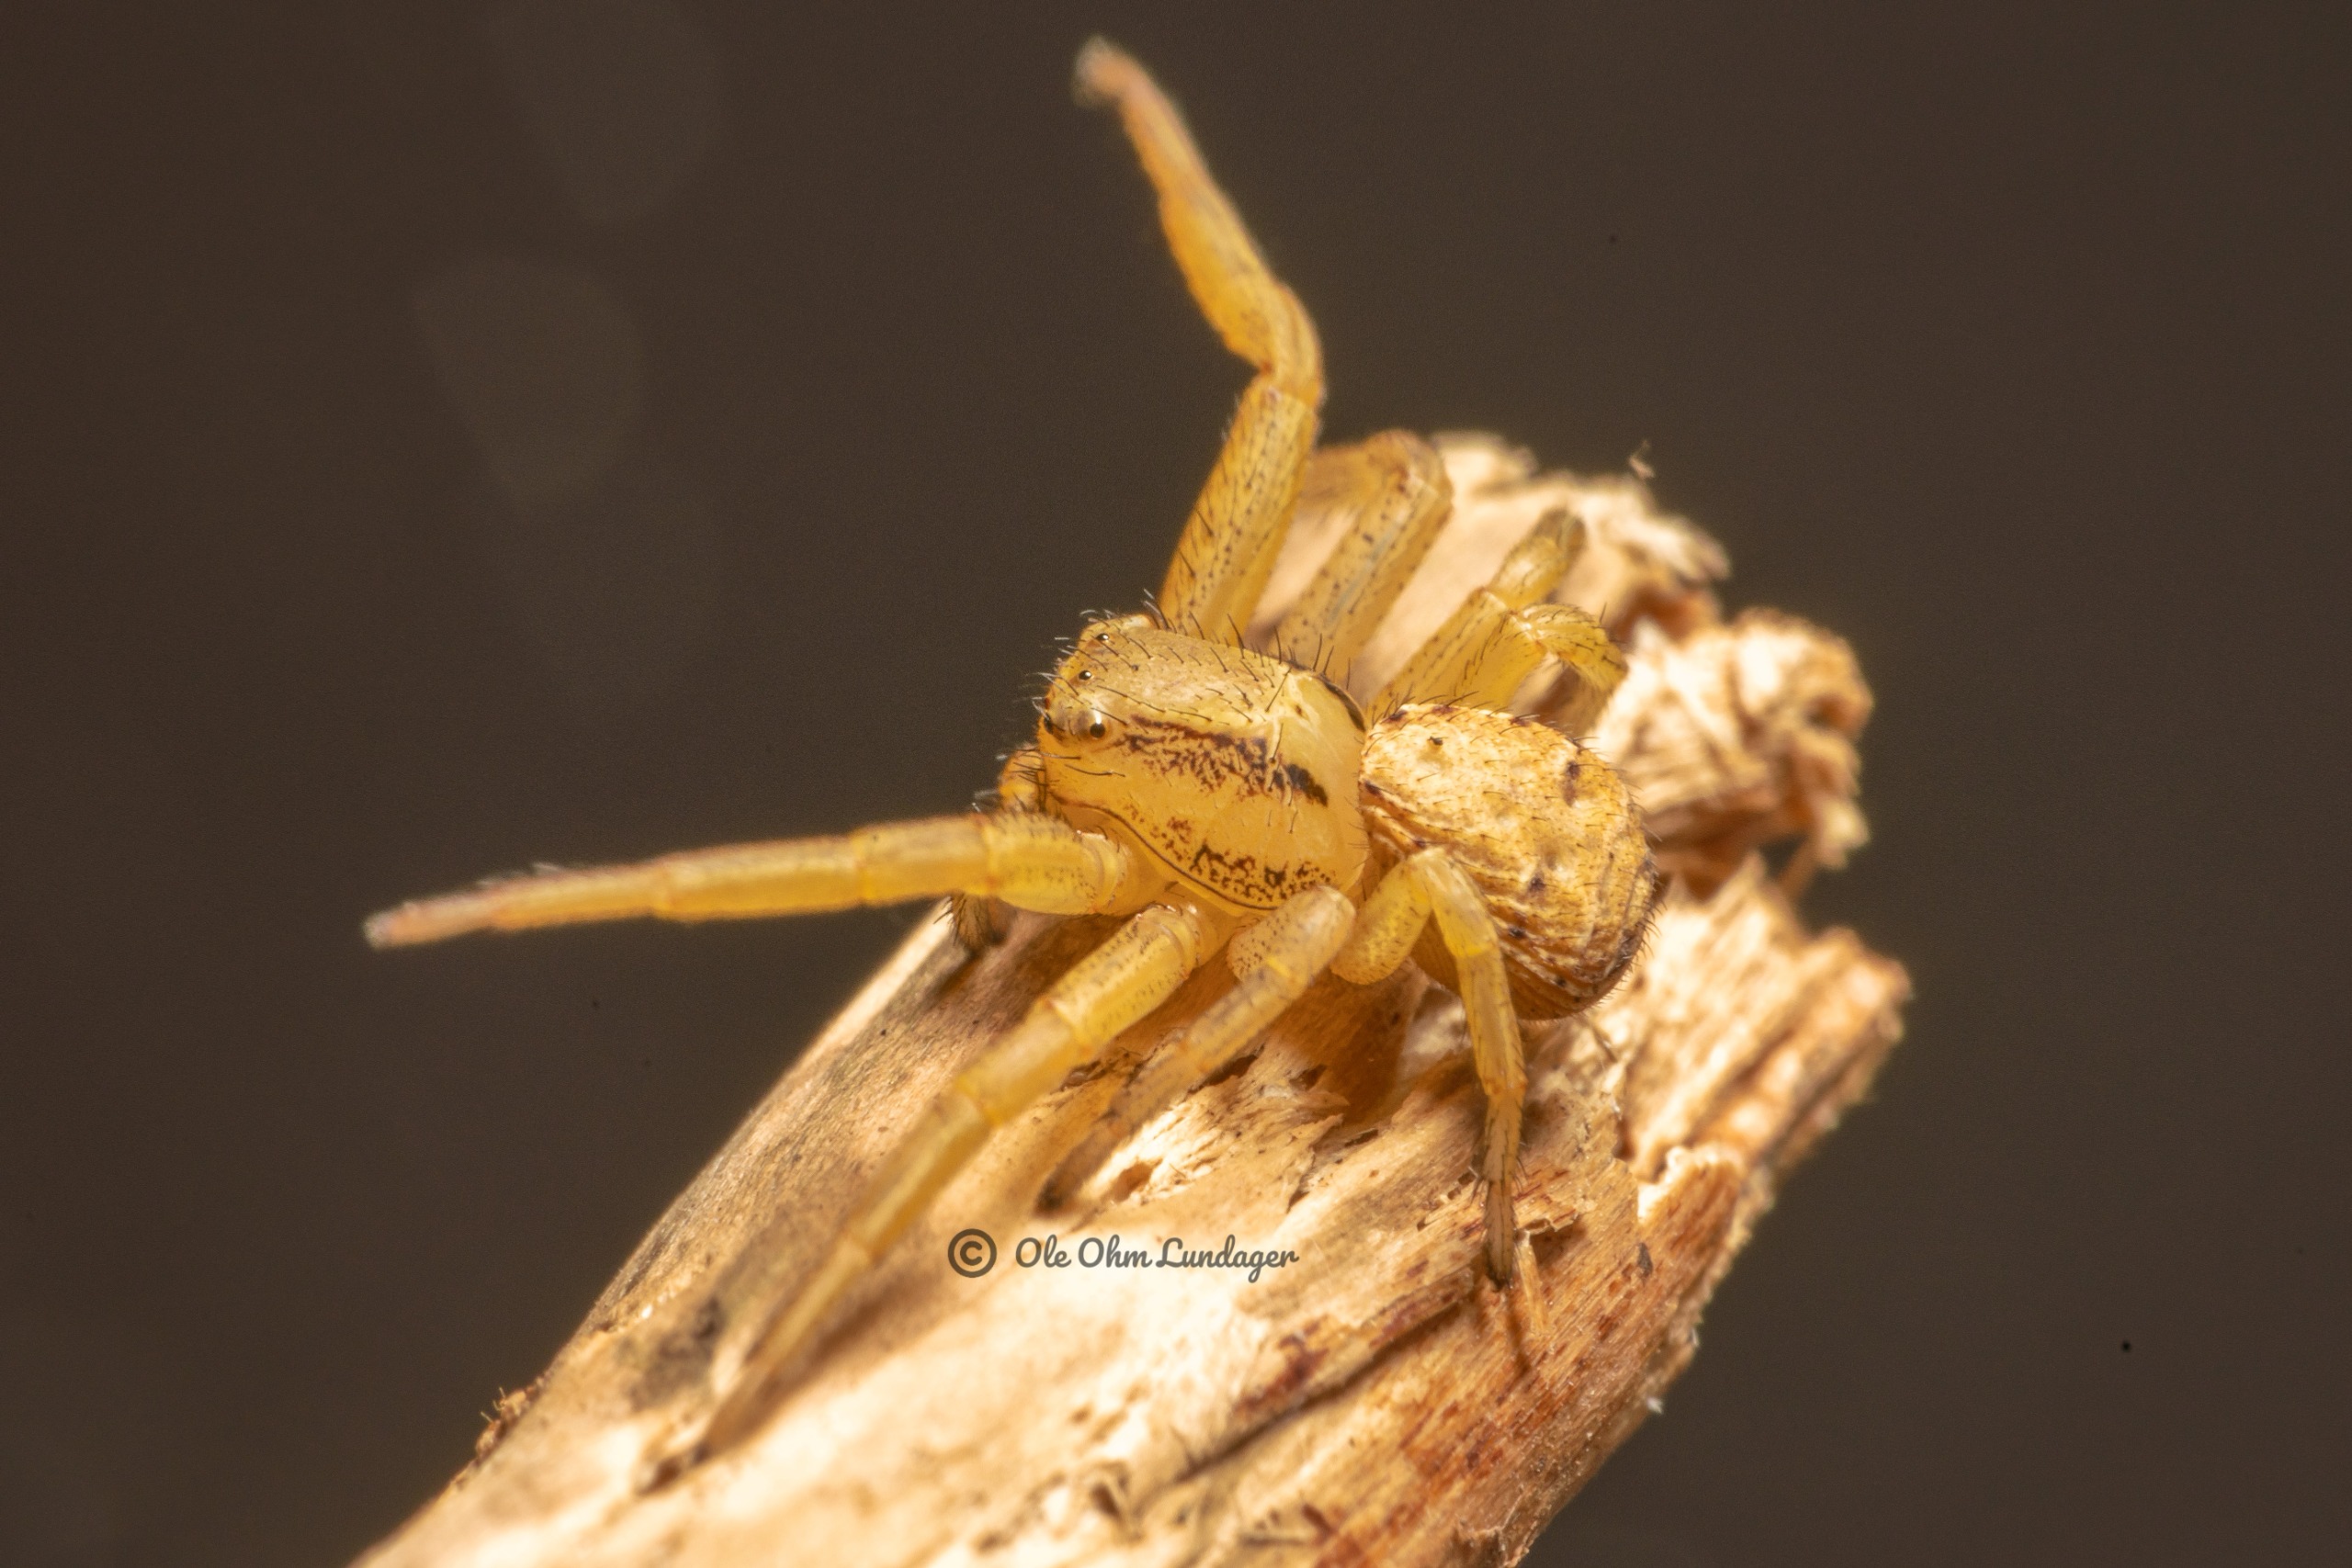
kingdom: Animalia
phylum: Arthropoda
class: Arachnida
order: Araneae
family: Thomisidae
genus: Xysticus
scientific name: Xysticus erraticus
